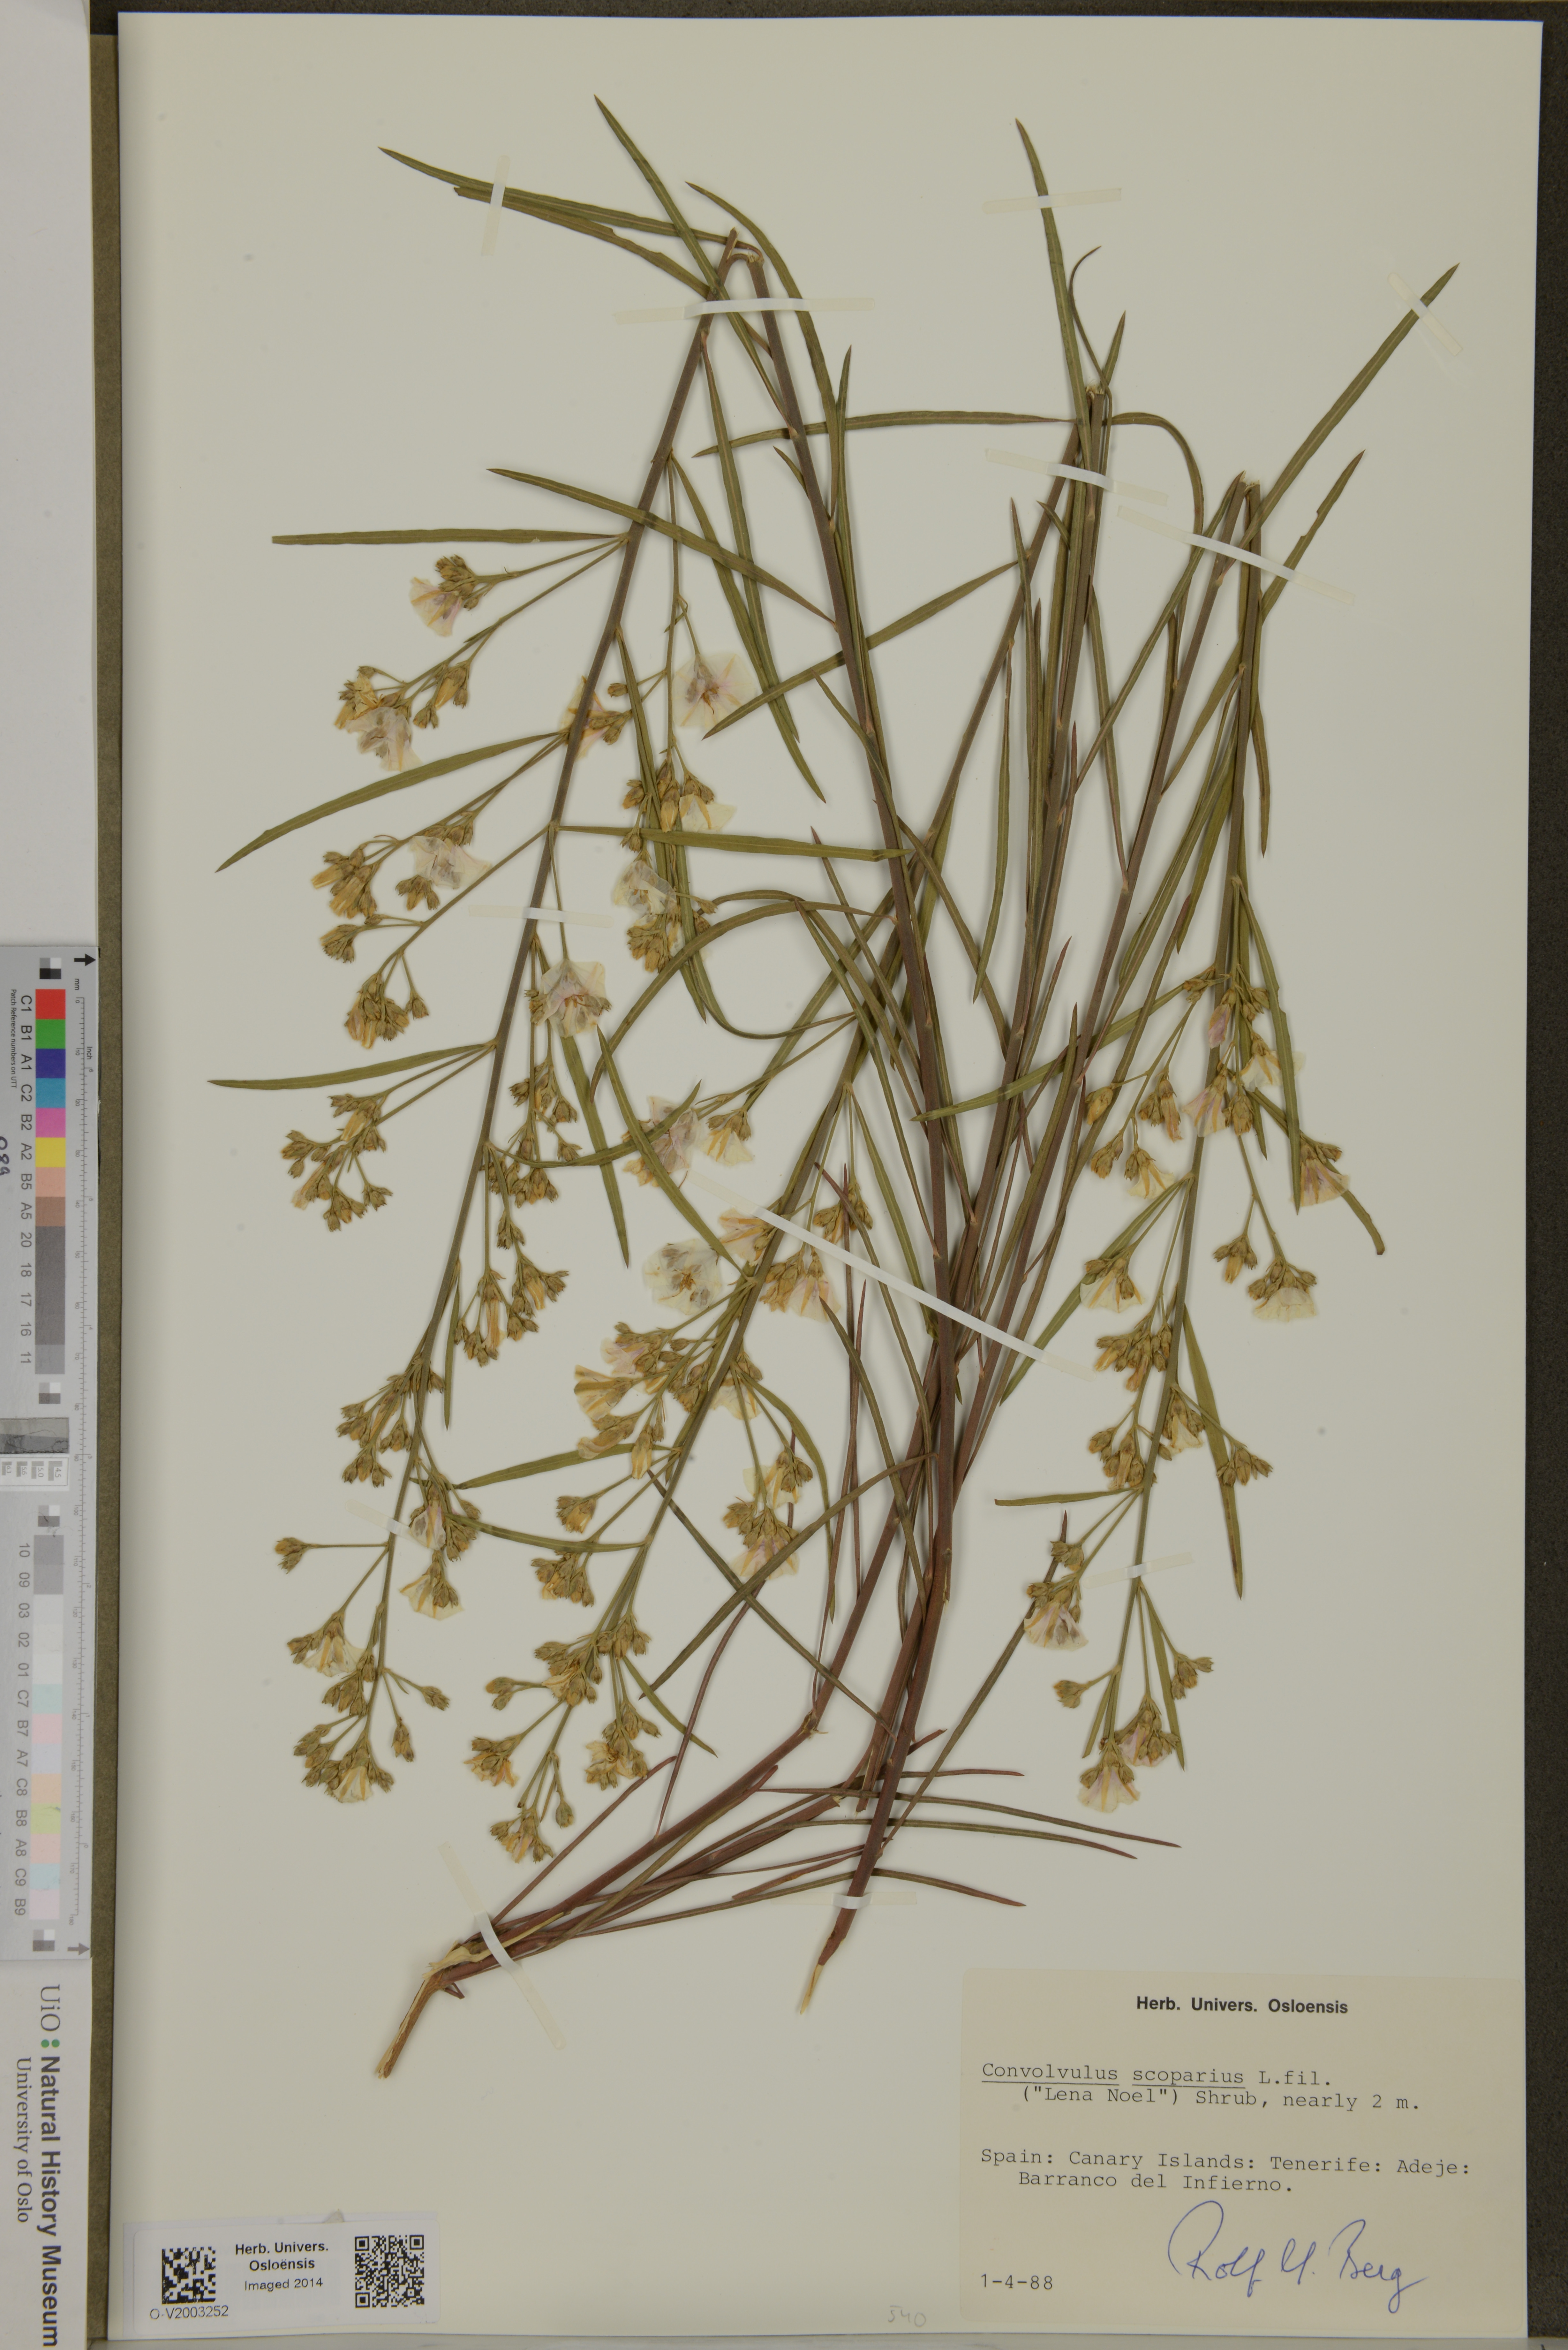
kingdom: Plantae
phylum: Tracheophyta
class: Magnoliopsida
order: Solanales
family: Convolvulaceae
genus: Convolvulus
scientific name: Convolvulus scoparius
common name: Lignum rhodium
